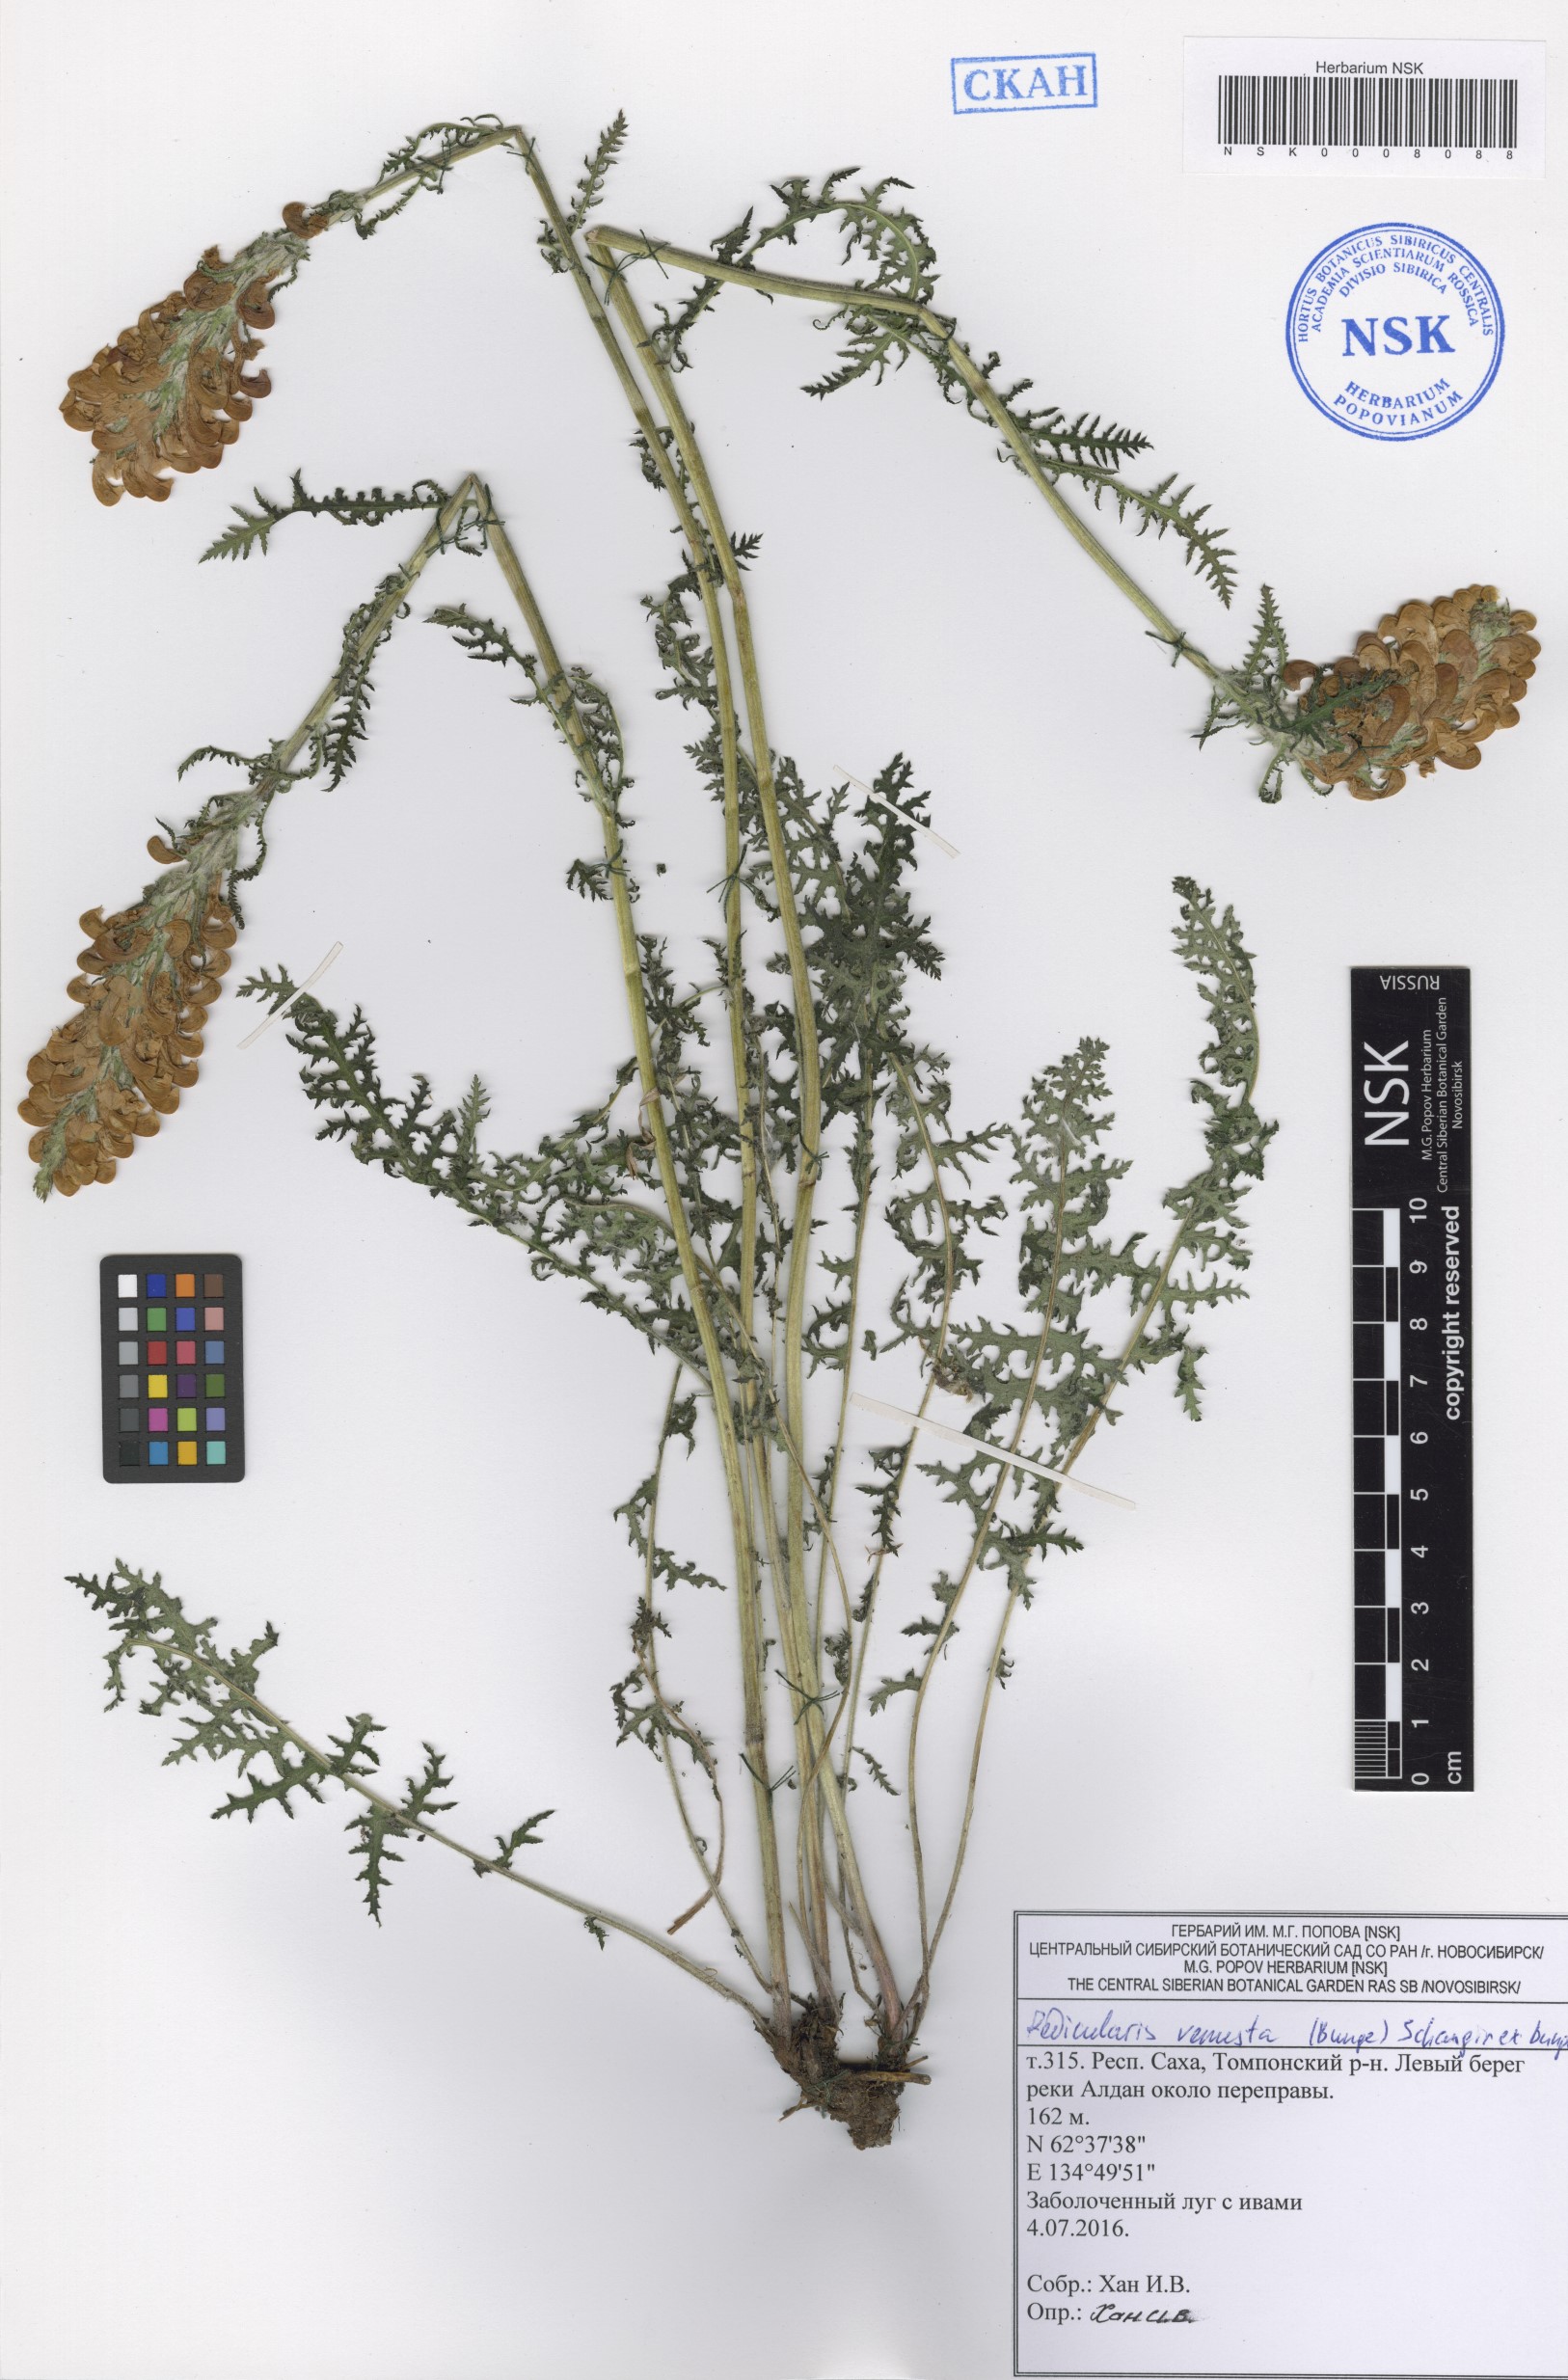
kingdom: Plantae
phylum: Tracheophyta
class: Magnoliopsida
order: Lamiales
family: Orobanchaceae
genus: Pedicularis
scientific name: Pedicularis venusta
